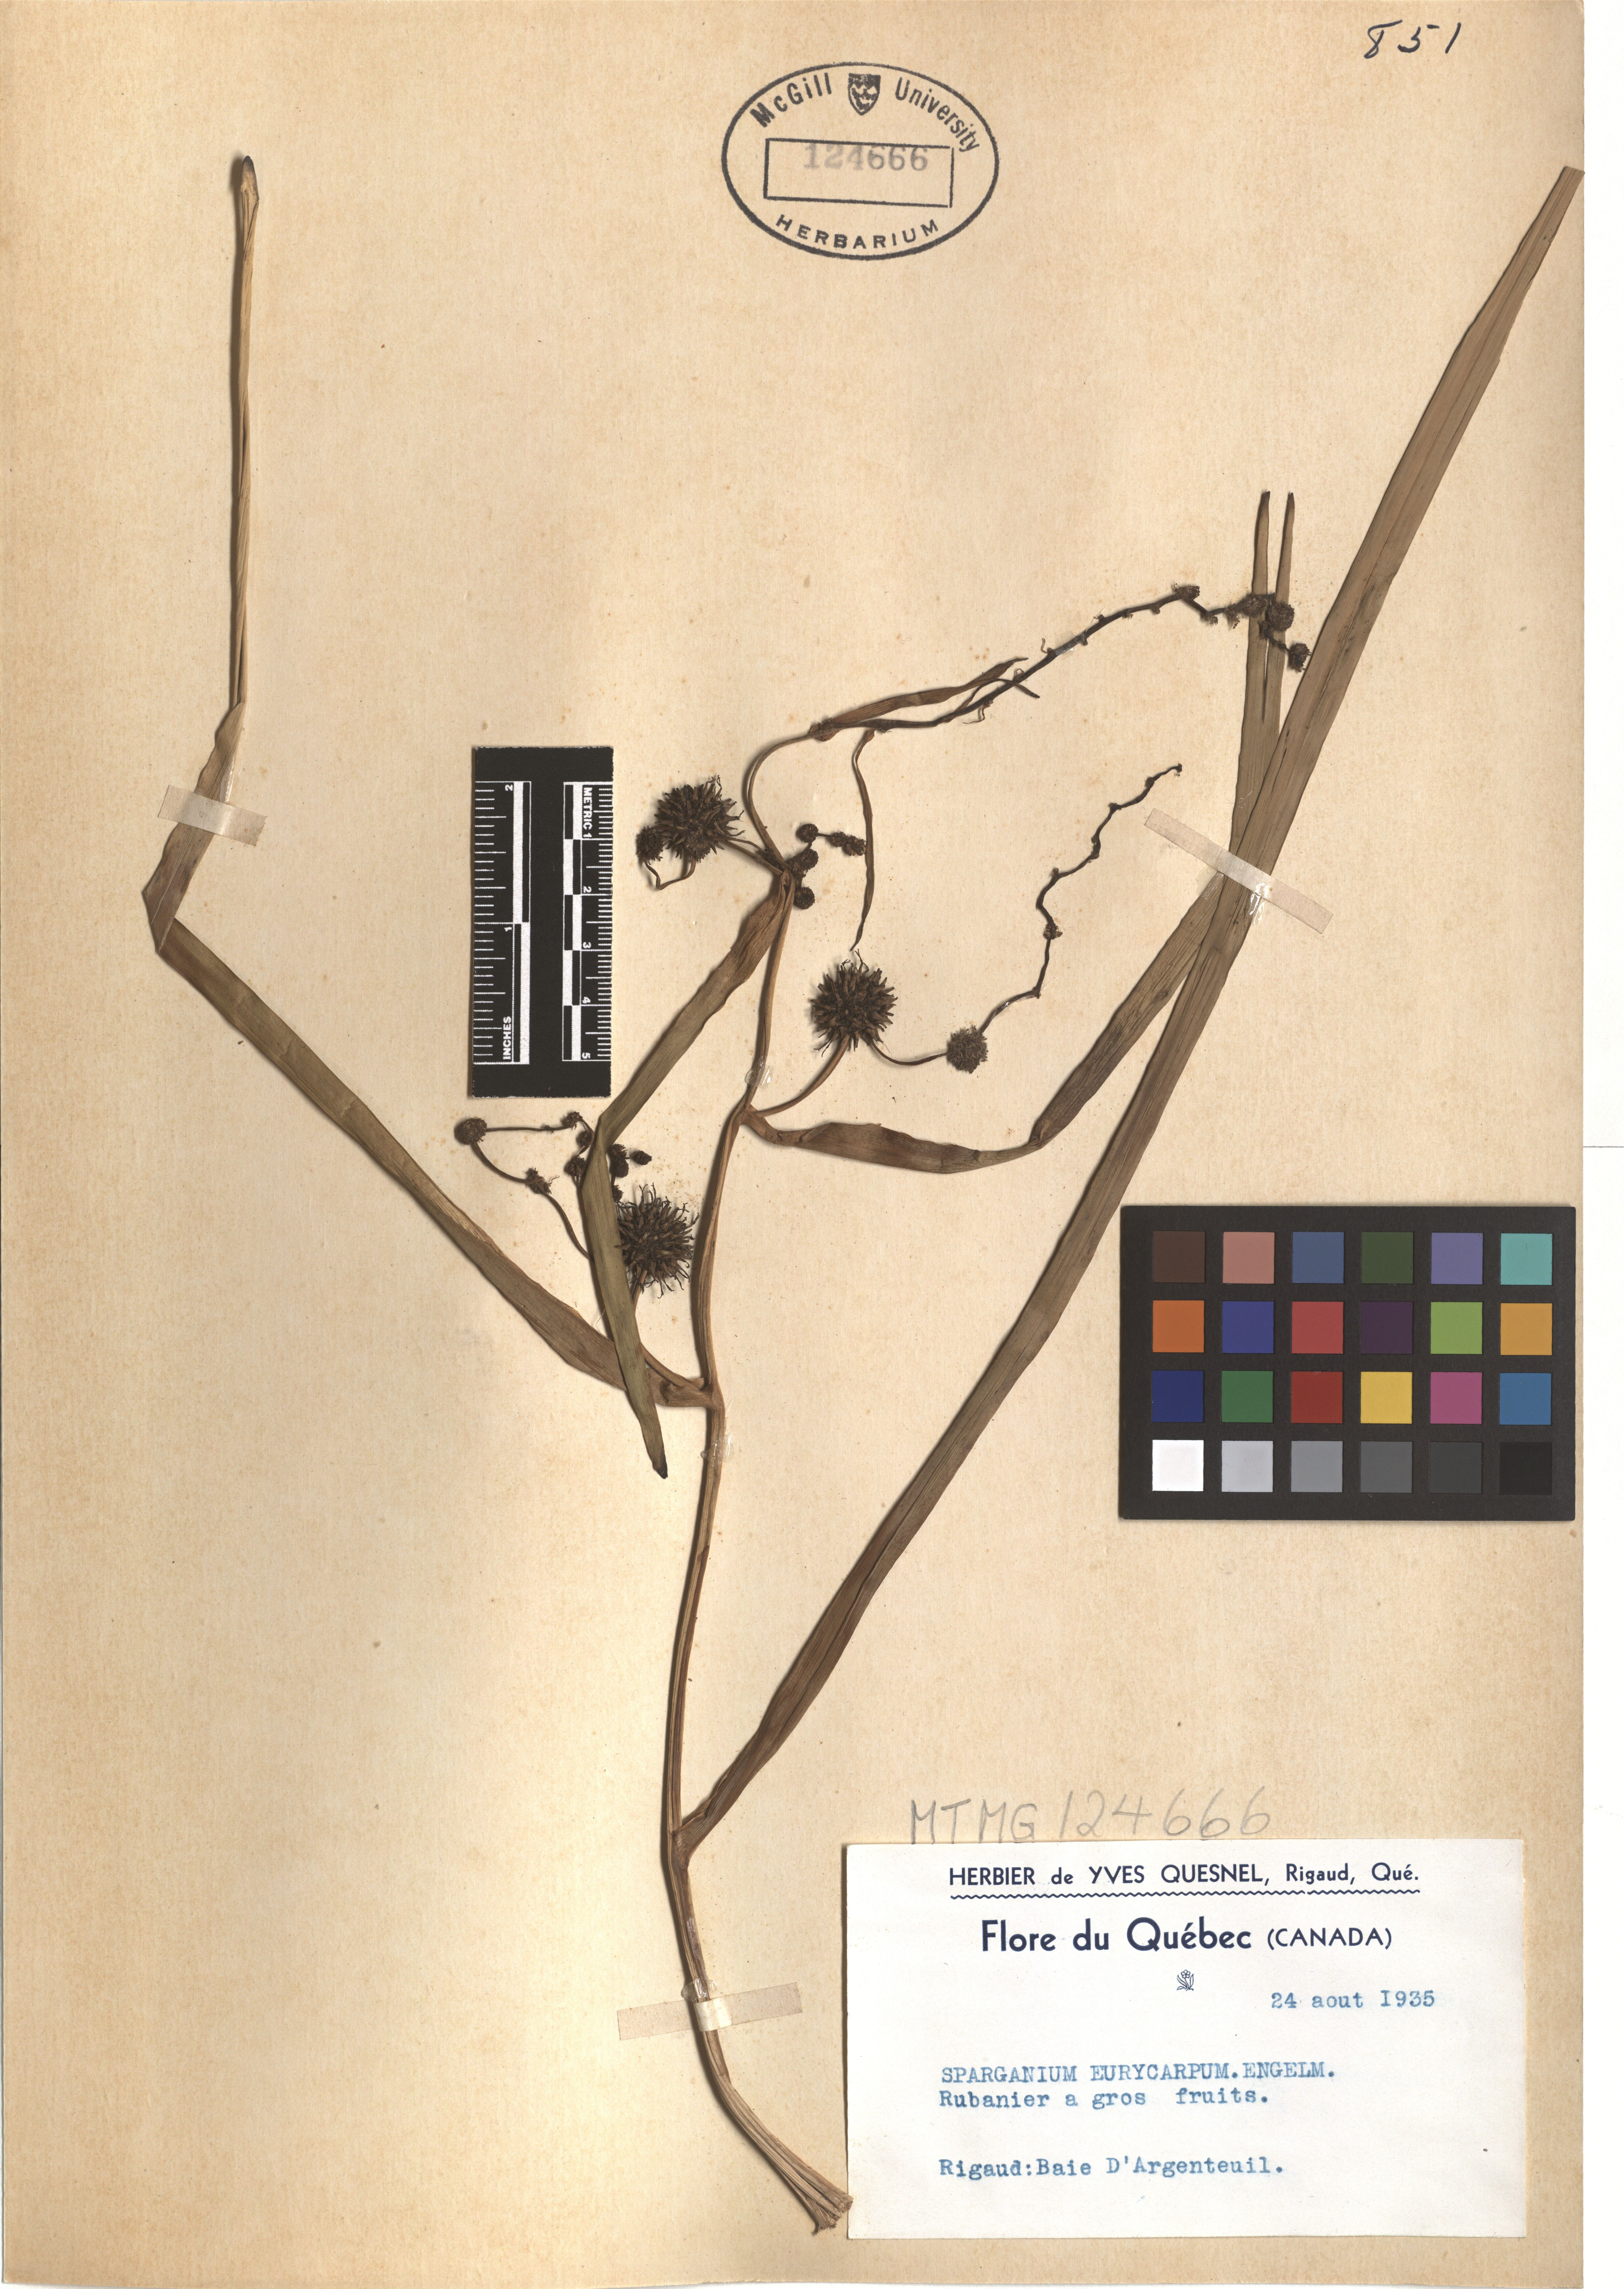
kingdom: Plantae
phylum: Tracheophyta
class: Liliopsida
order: Poales
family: Typhaceae
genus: Sparganium
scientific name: Sparganium eurycarpum
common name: Broad-fruited burreed
